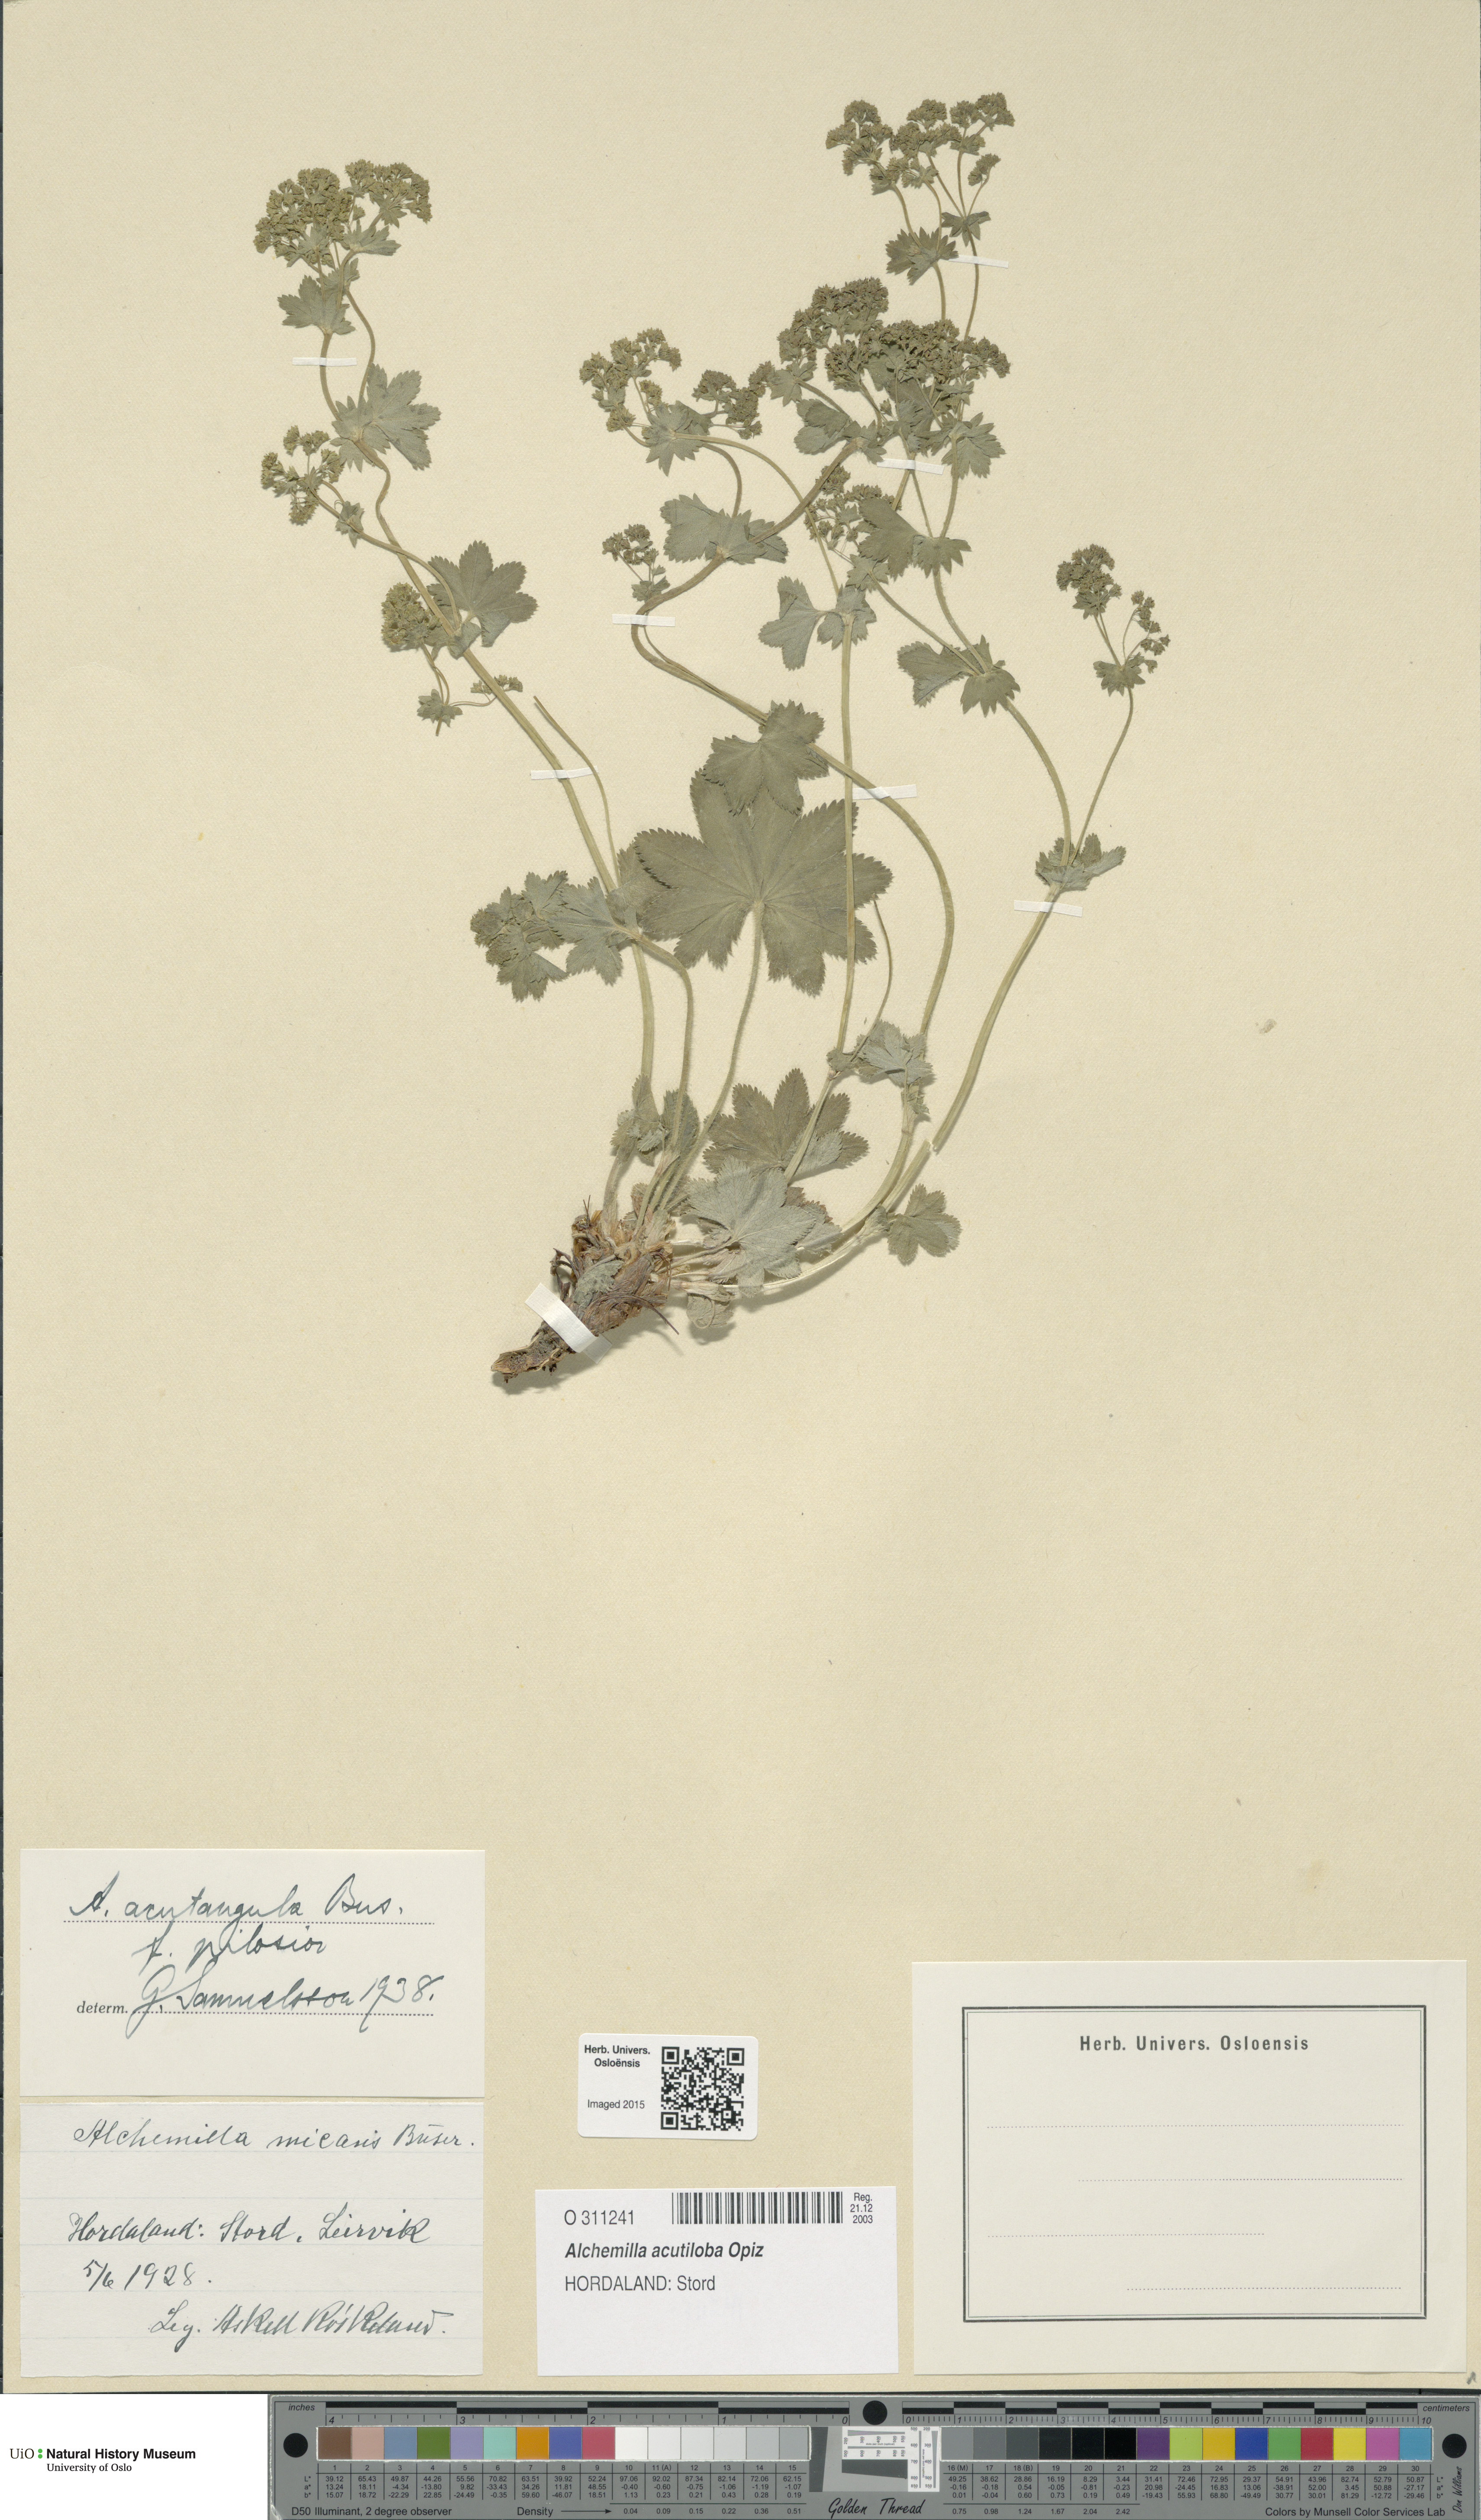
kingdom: Plantae
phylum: Tracheophyta
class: Magnoliopsida
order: Rosales
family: Rosaceae
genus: Alchemilla
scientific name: Alchemilla vulgaris
